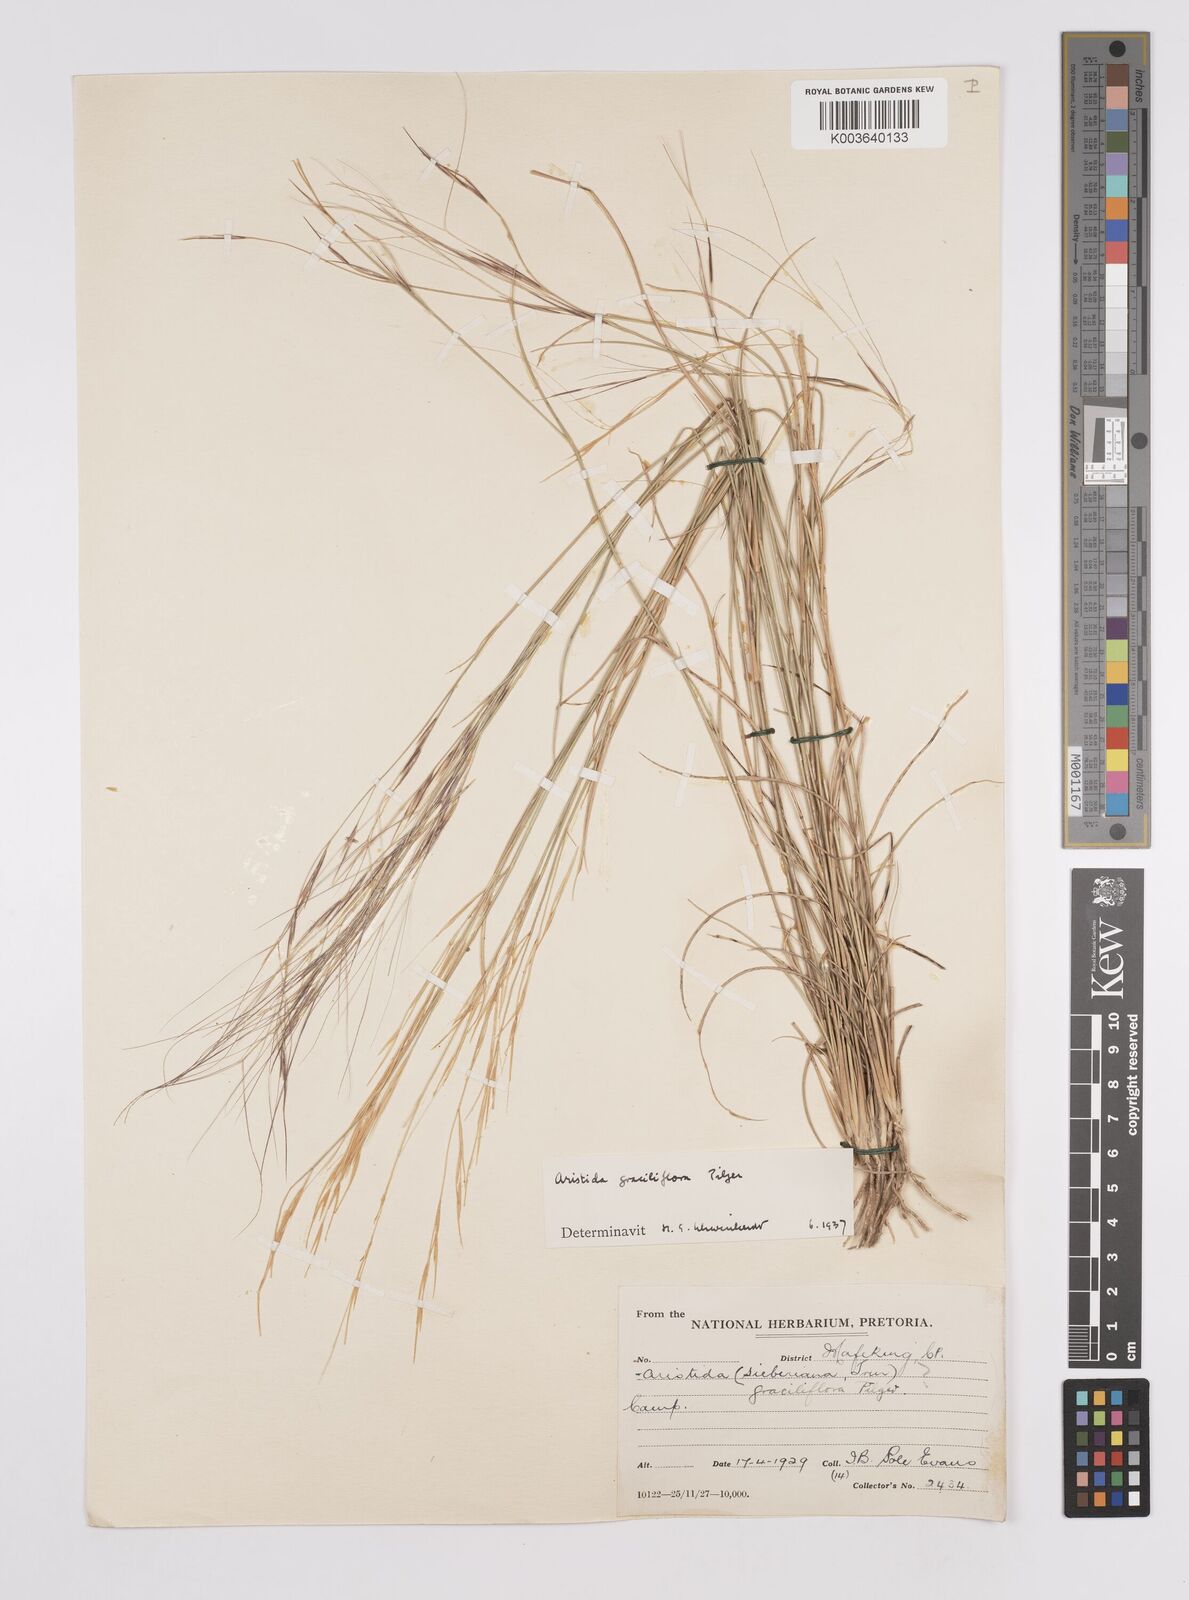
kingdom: Plantae
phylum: Tracheophyta
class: Liliopsida
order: Poales
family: Poaceae
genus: Aristida
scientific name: Aristida stipitata
